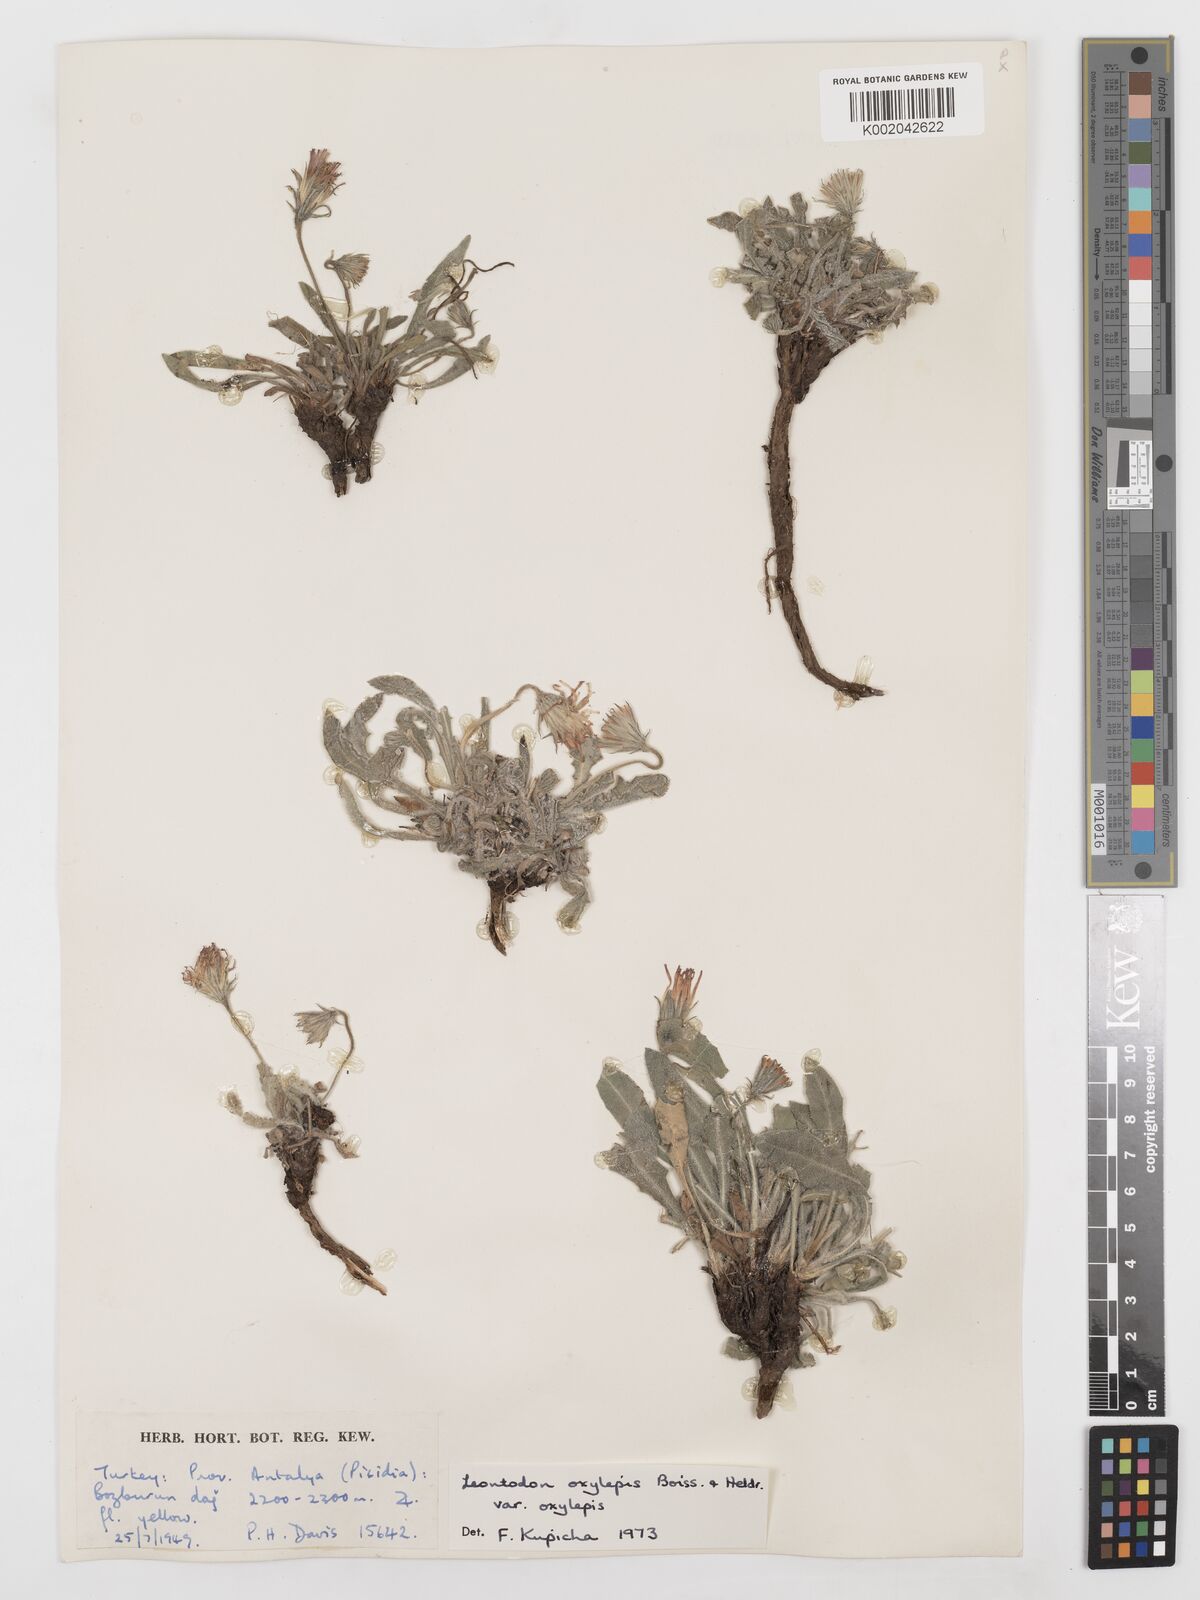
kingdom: Plantae
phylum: Tracheophyta
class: Magnoliopsida
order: Asterales
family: Asteraceae
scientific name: Asteraceae
